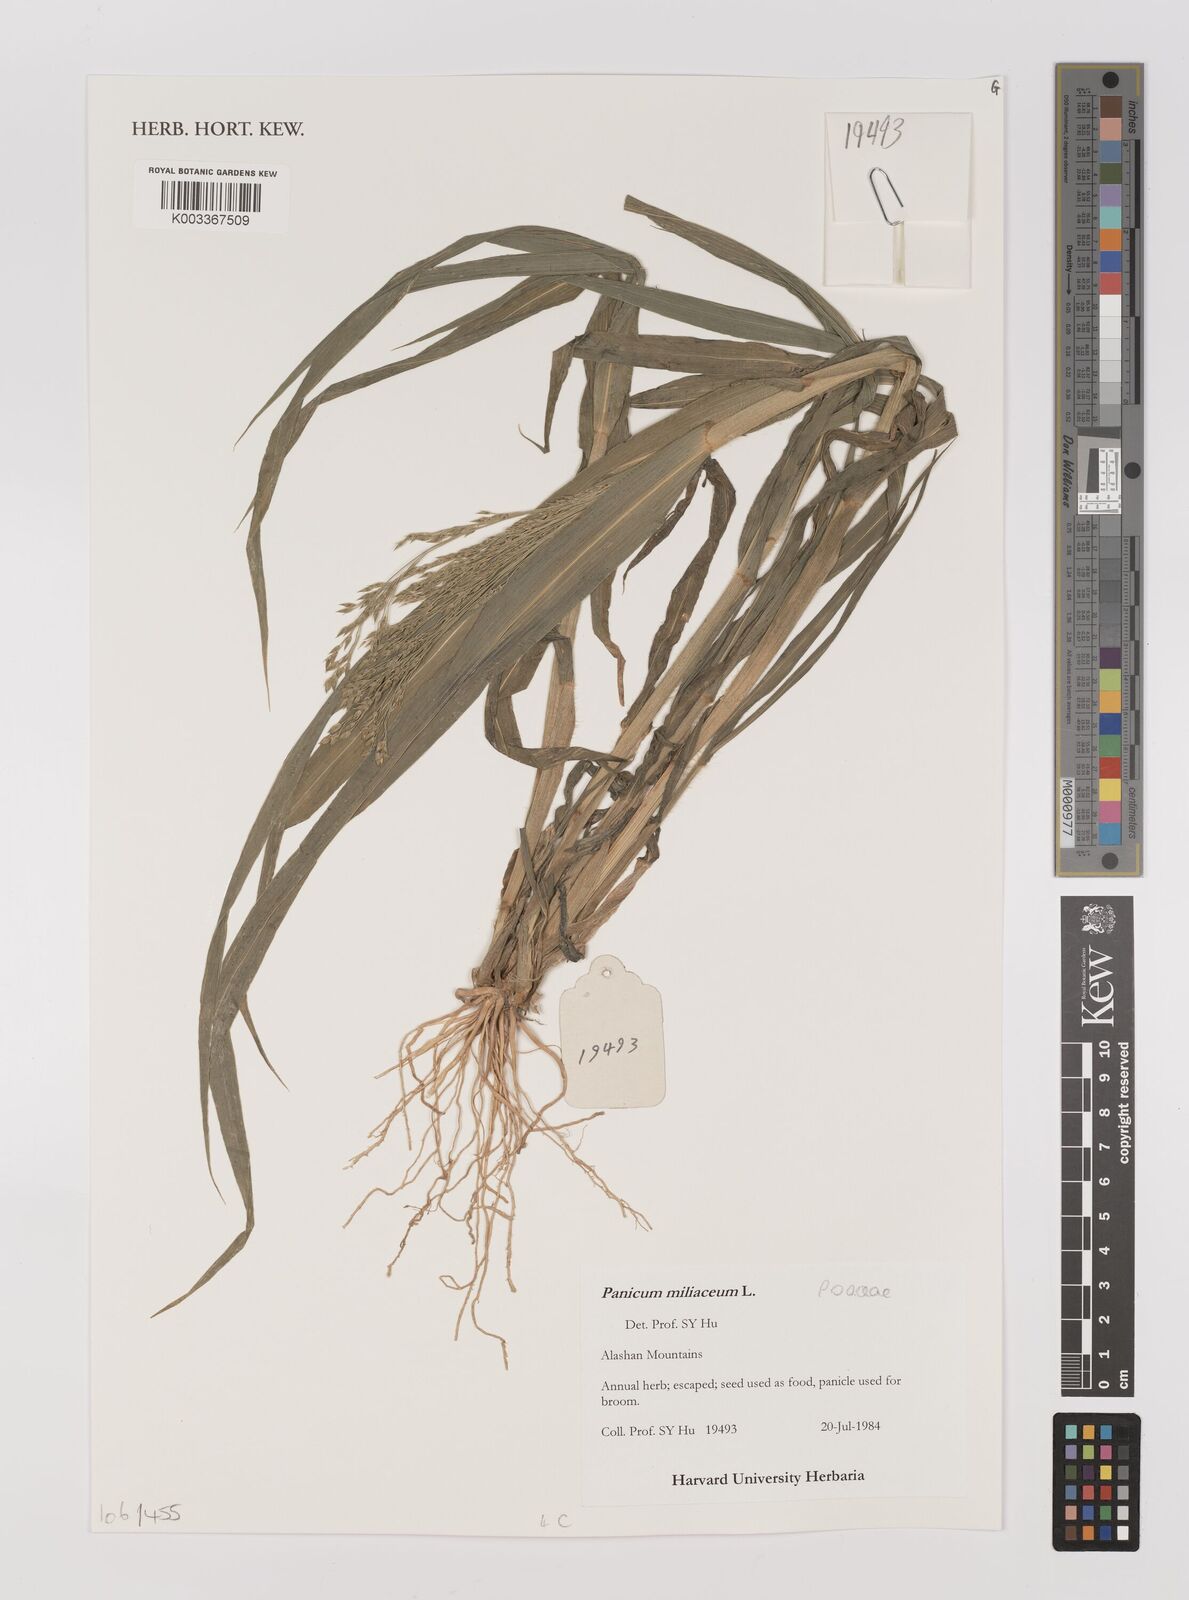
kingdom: Plantae
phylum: Tracheophyta
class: Liliopsida
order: Poales
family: Poaceae
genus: Panicum
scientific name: Panicum miliaceum
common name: Common millet
